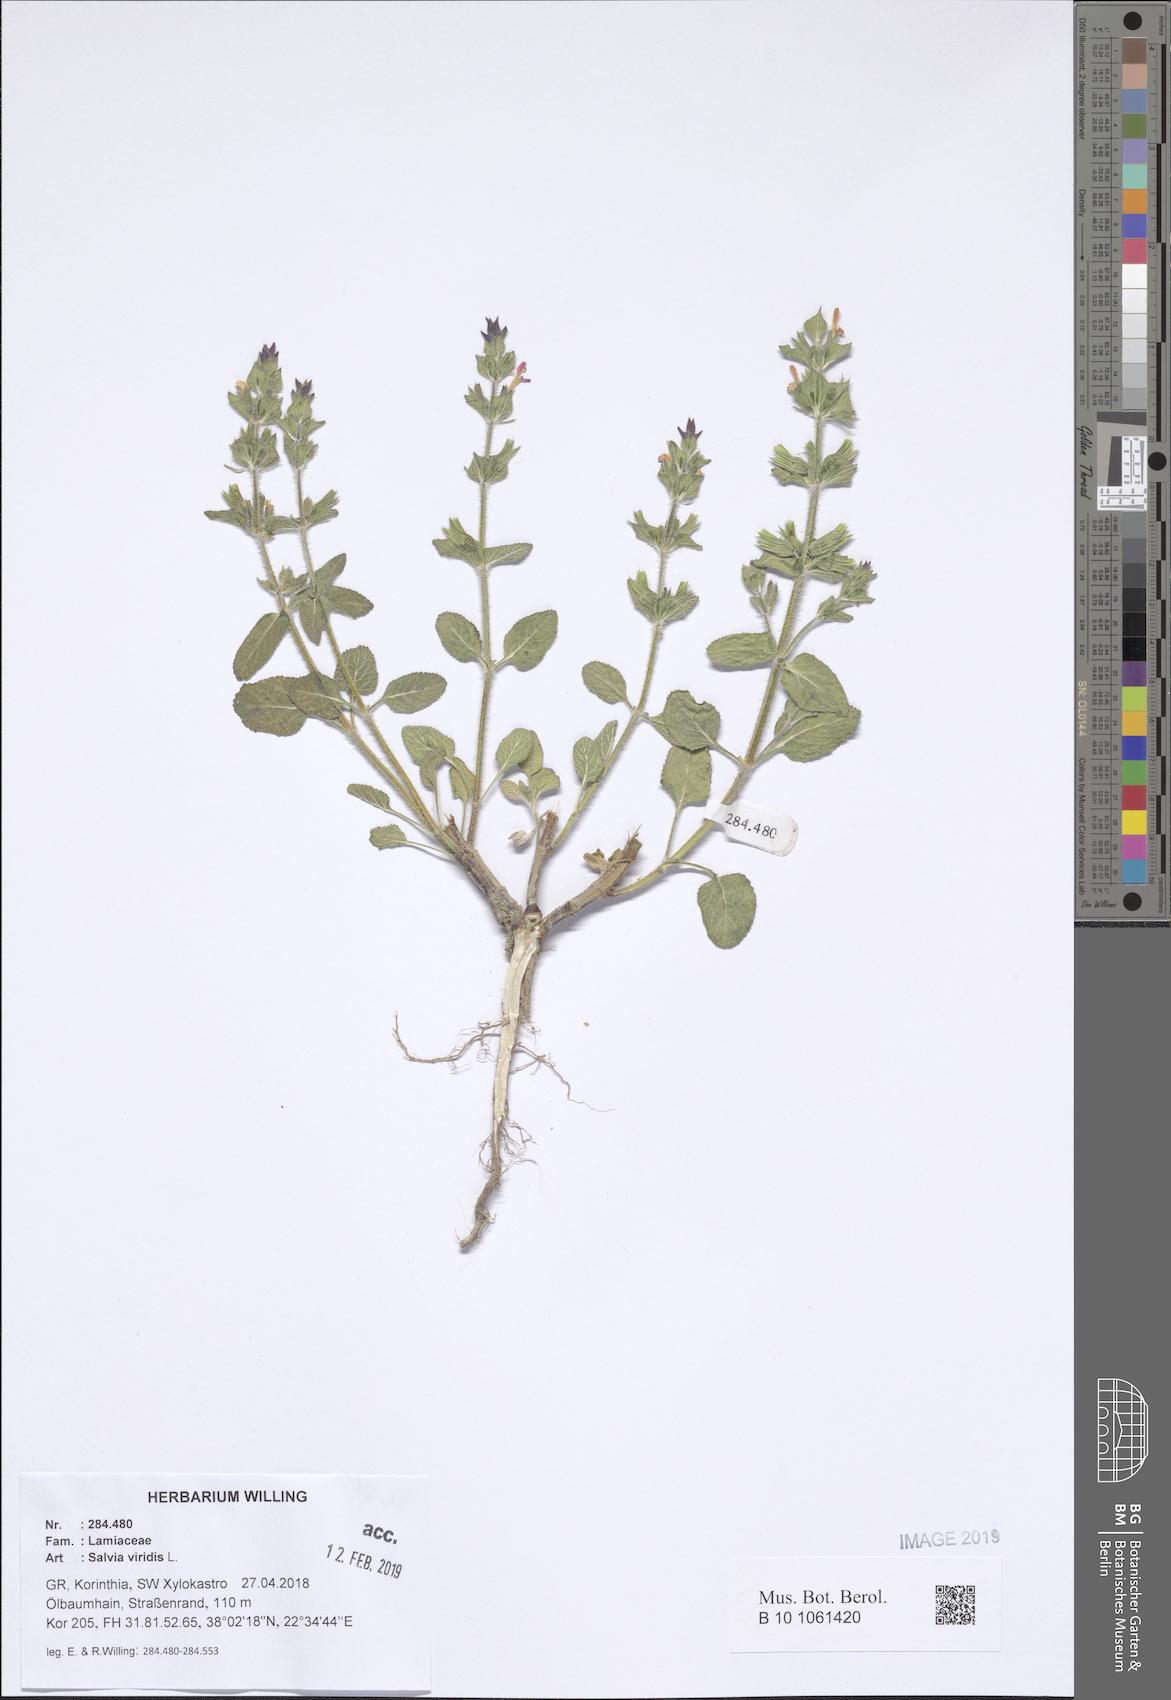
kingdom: Plantae
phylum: Tracheophyta
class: Magnoliopsida
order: Lamiales
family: Lamiaceae
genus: Salvia
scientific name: Salvia viridis
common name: Annual clary
